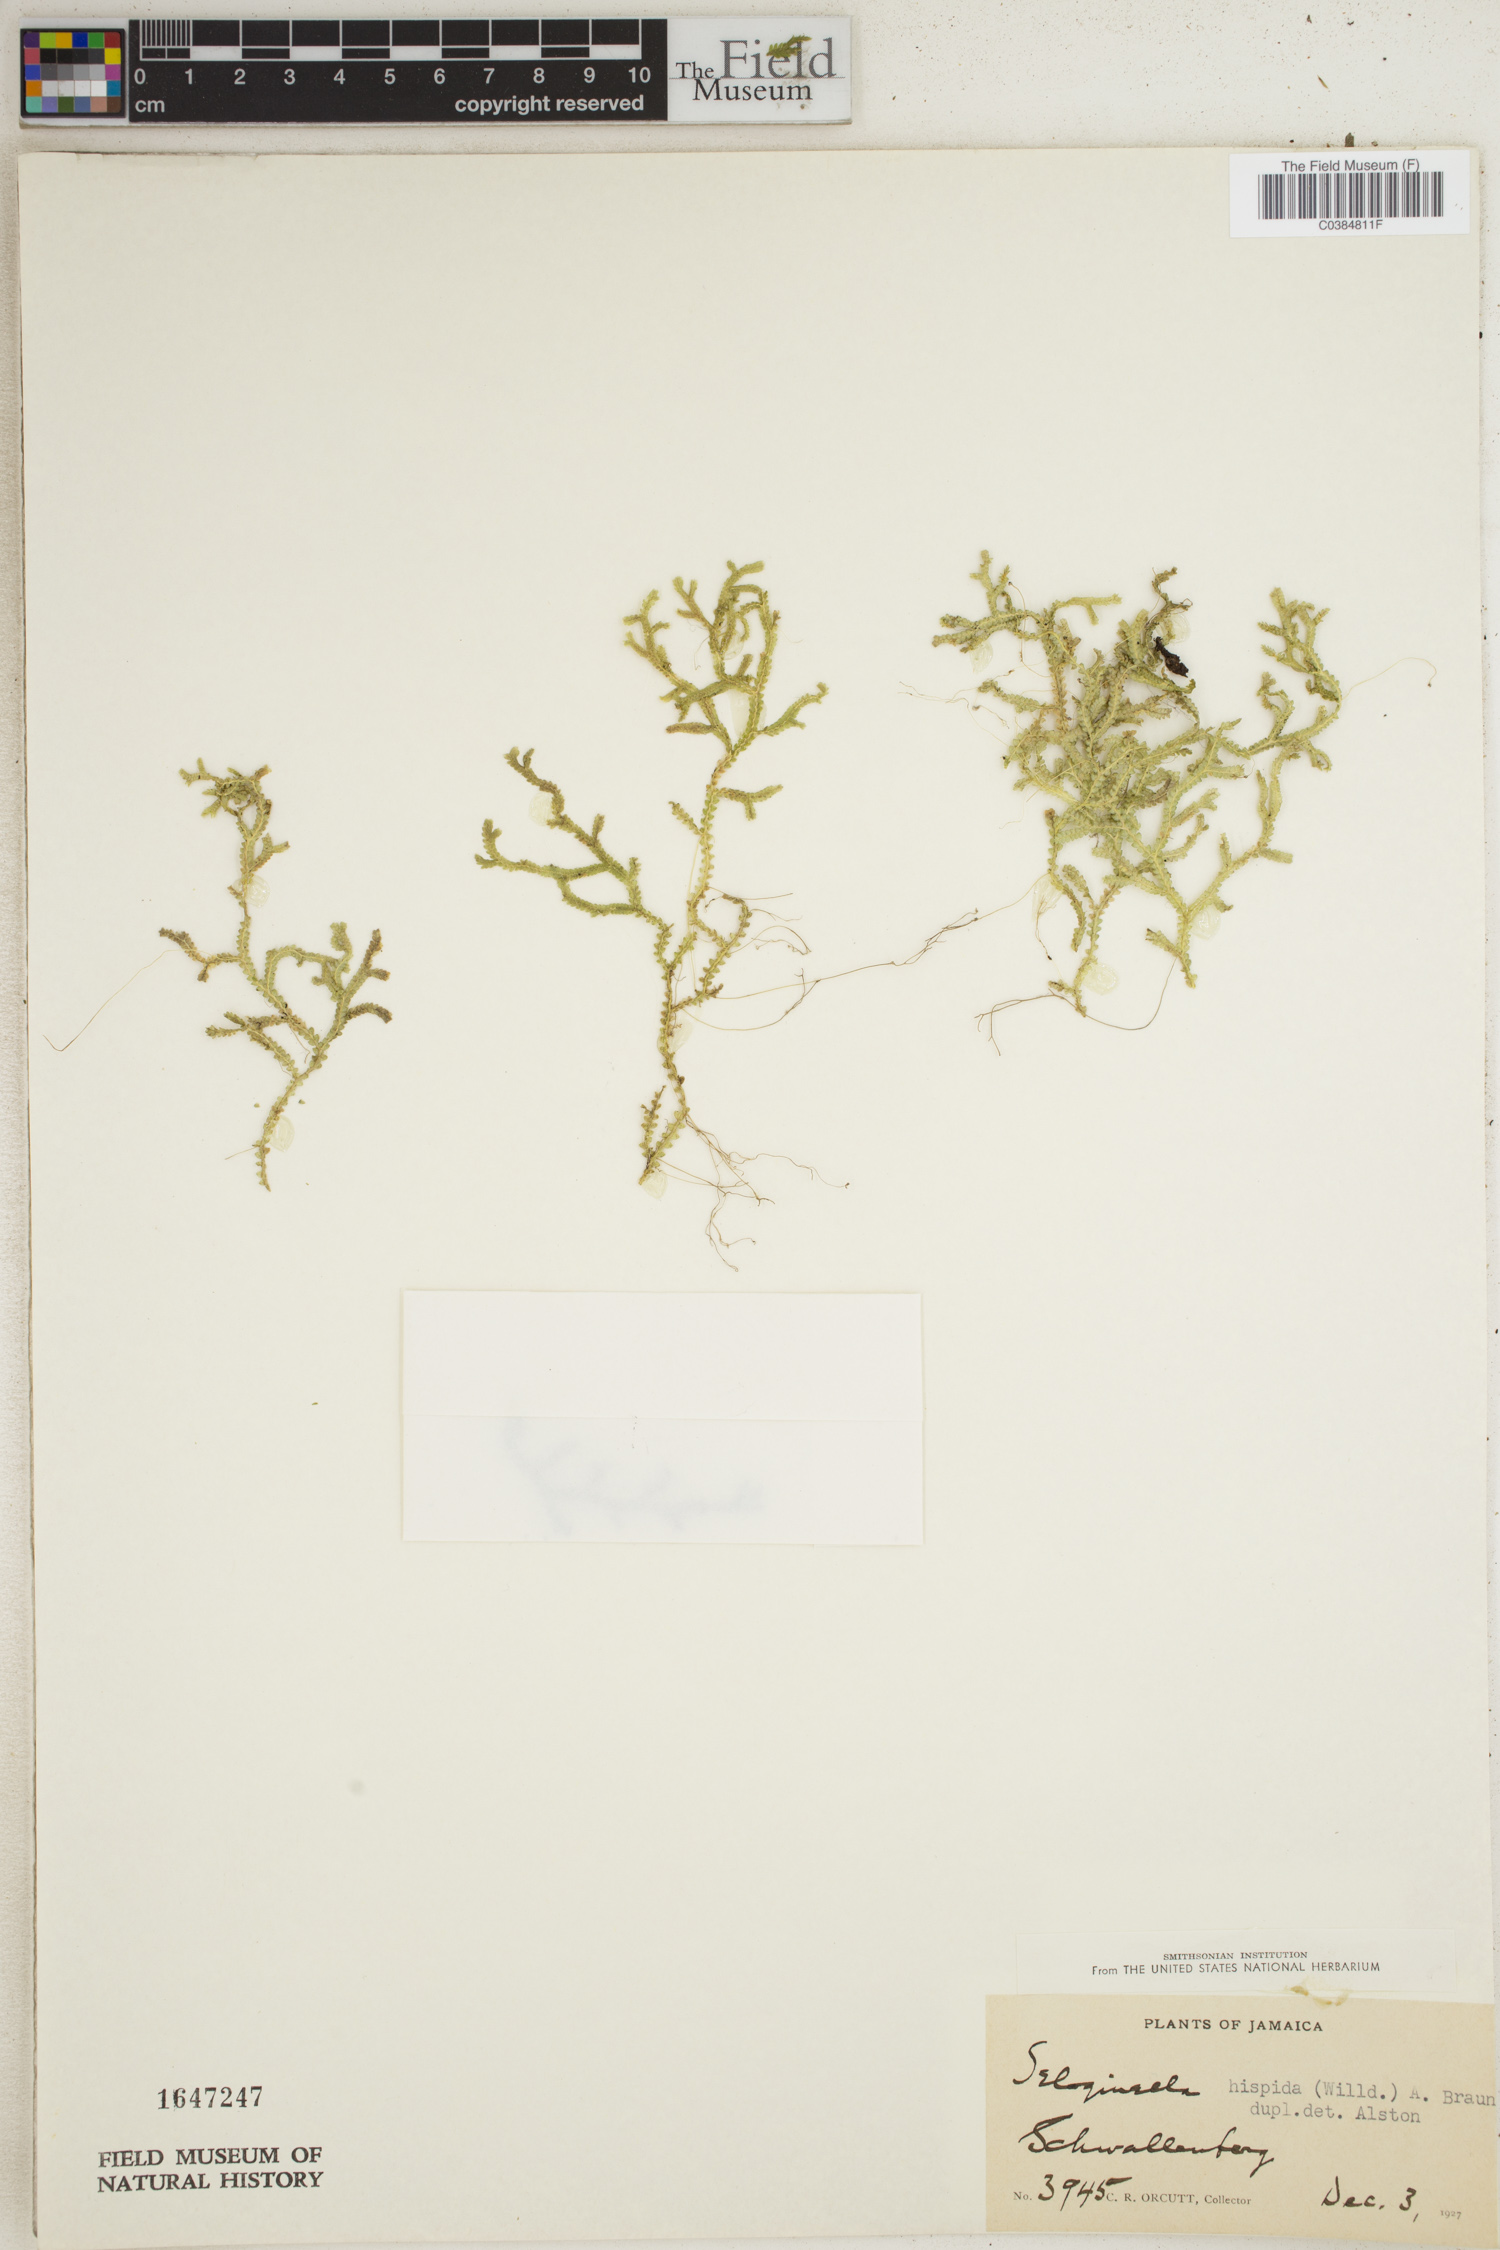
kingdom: Plantae
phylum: Tracheophyta
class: Lycopodiopsida
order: Selaginellales
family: Selaginellaceae
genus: Selaginella
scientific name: Selaginella hispida
